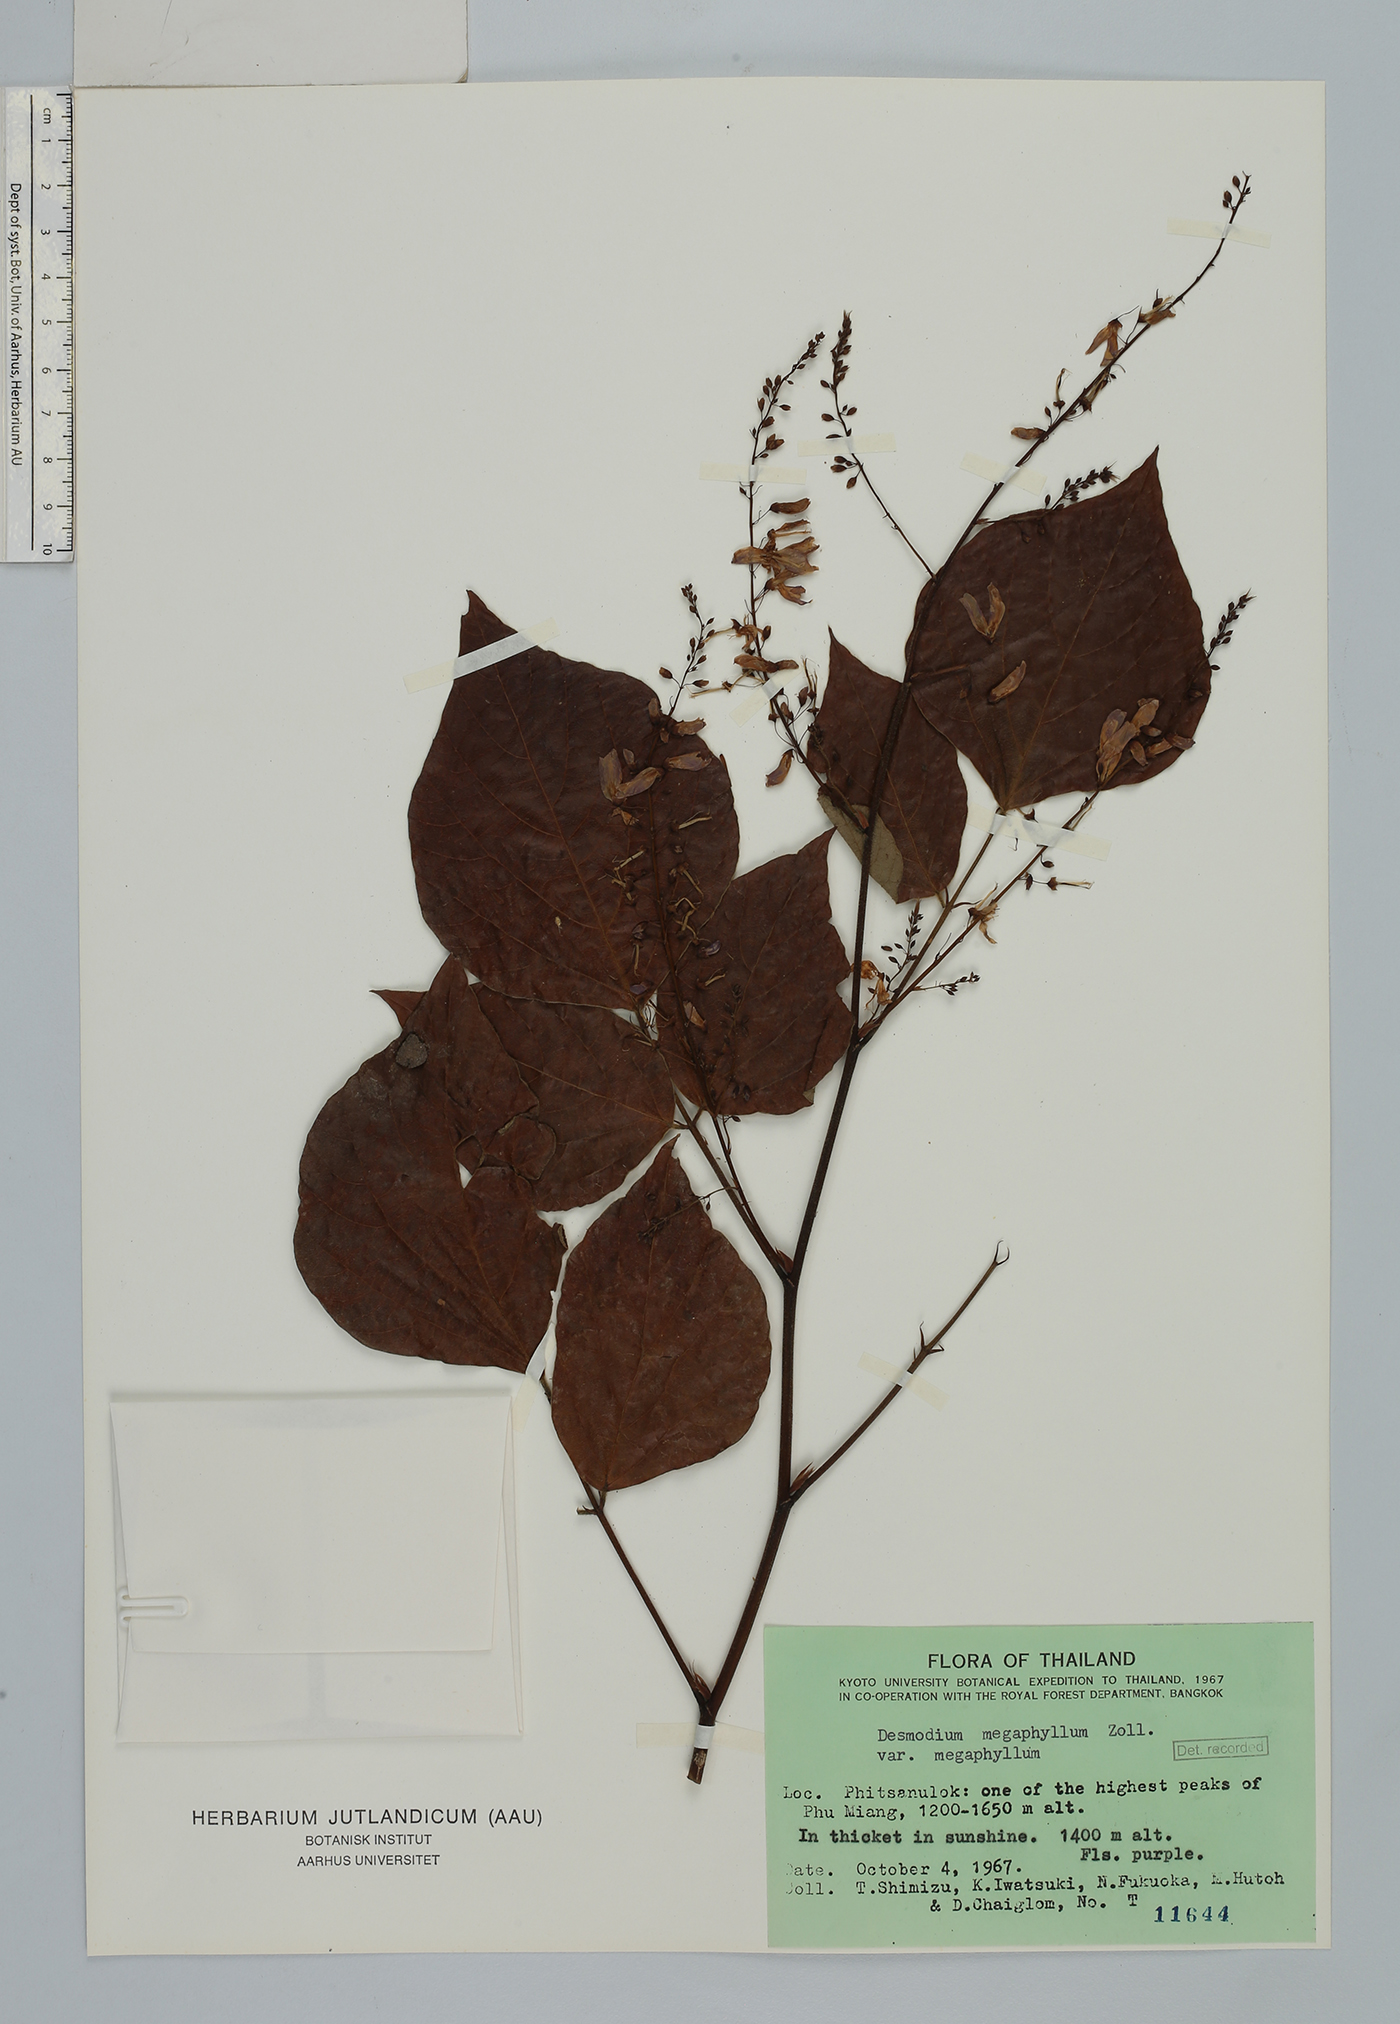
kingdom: Plantae
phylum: Tracheophyta
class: Magnoliopsida
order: Fabales
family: Fabaceae
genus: Puhuaea
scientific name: Puhuaea megaphylla
